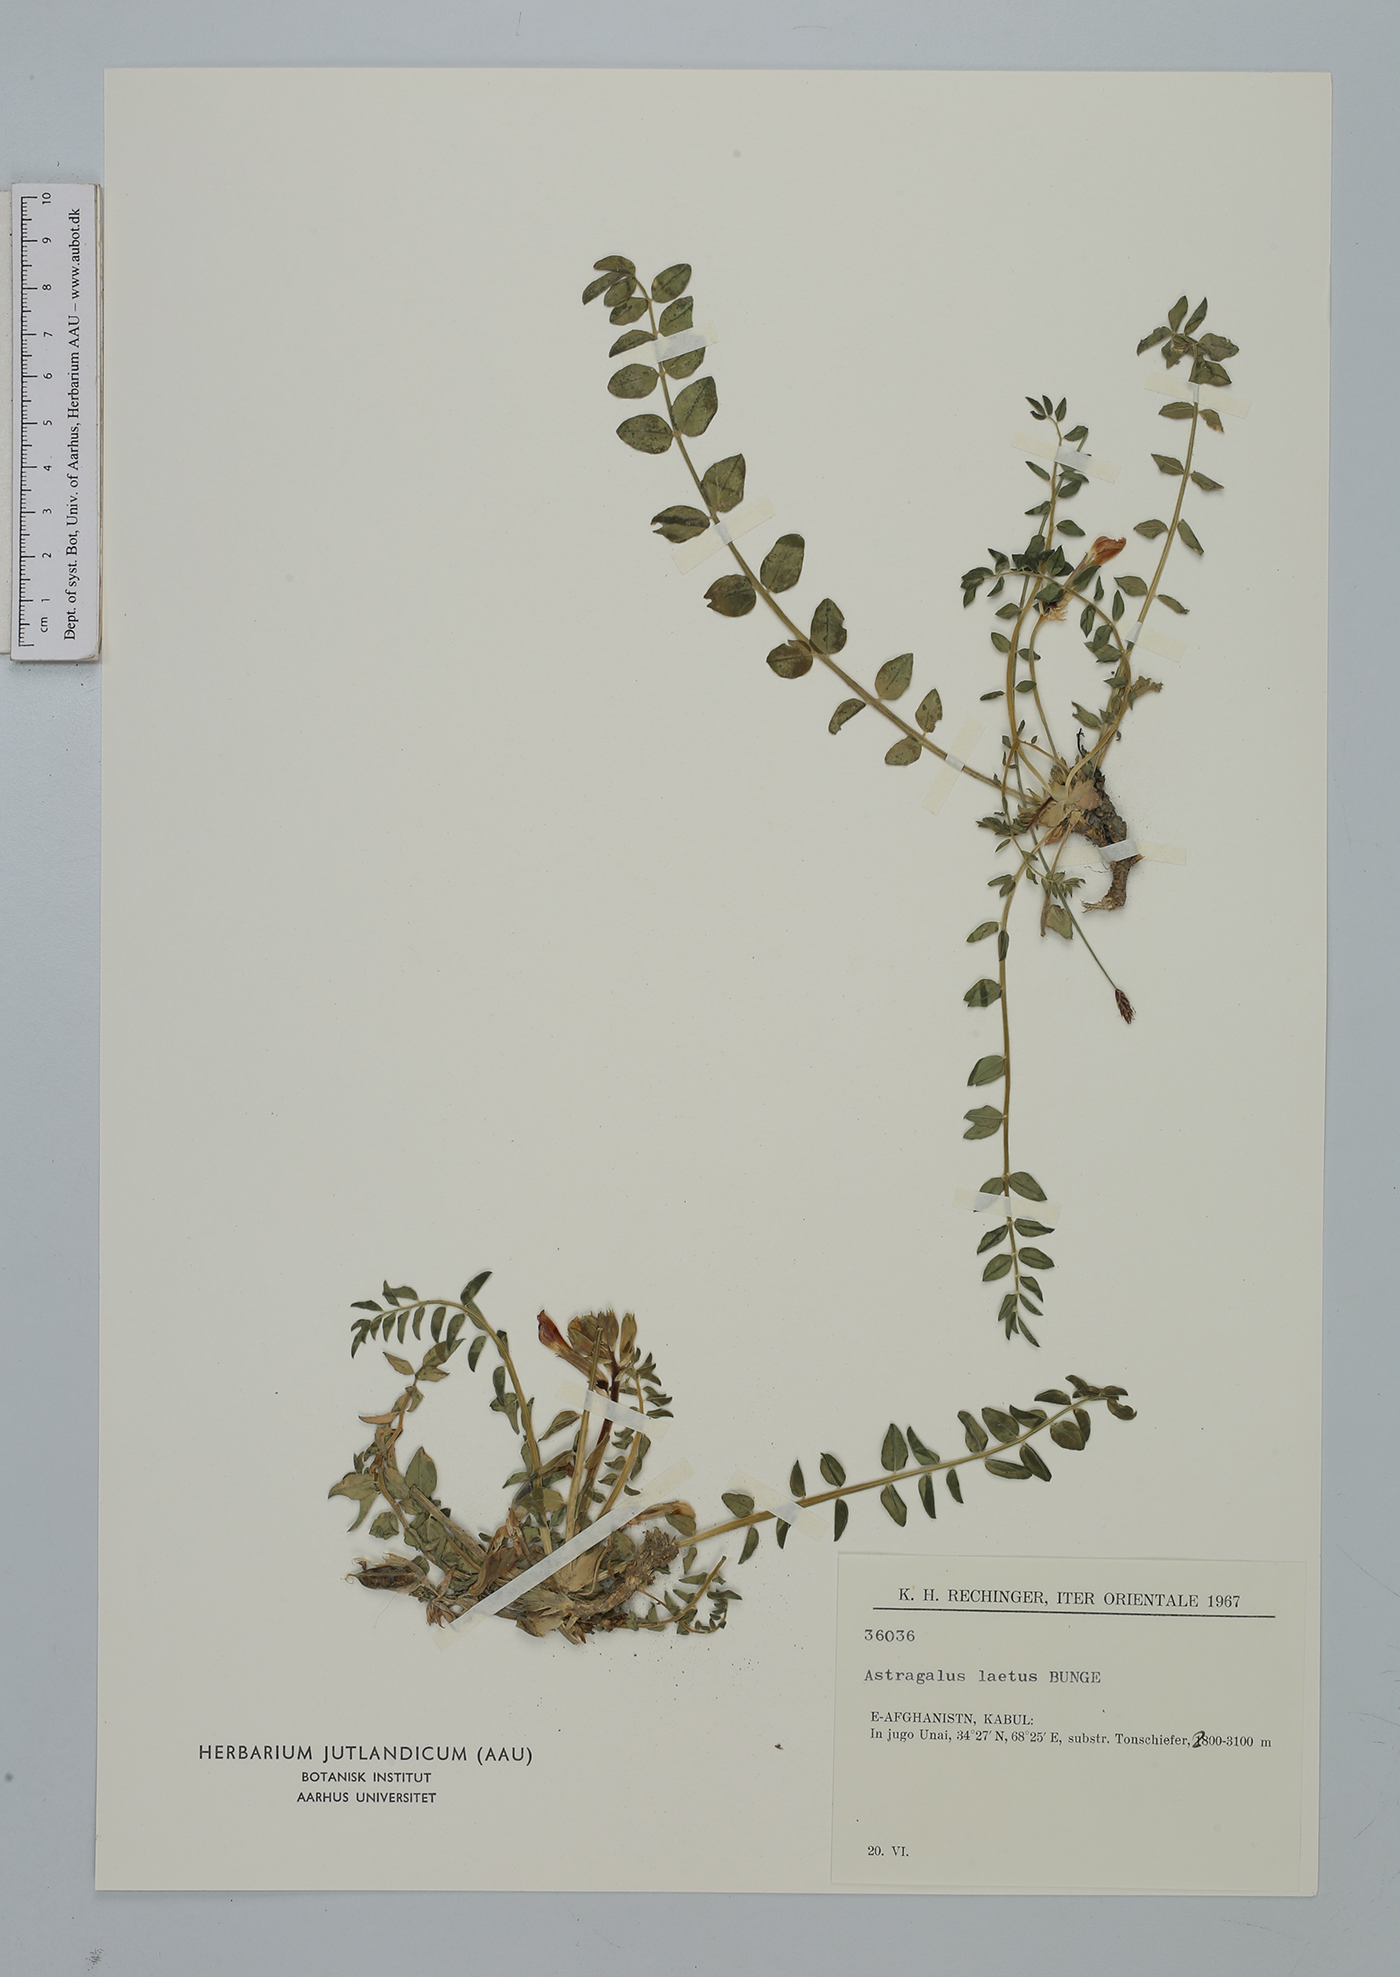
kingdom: Plantae
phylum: Tracheophyta
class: Magnoliopsida
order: Fabales
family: Fabaceae
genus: Astragalus
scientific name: Astragalus laetus
